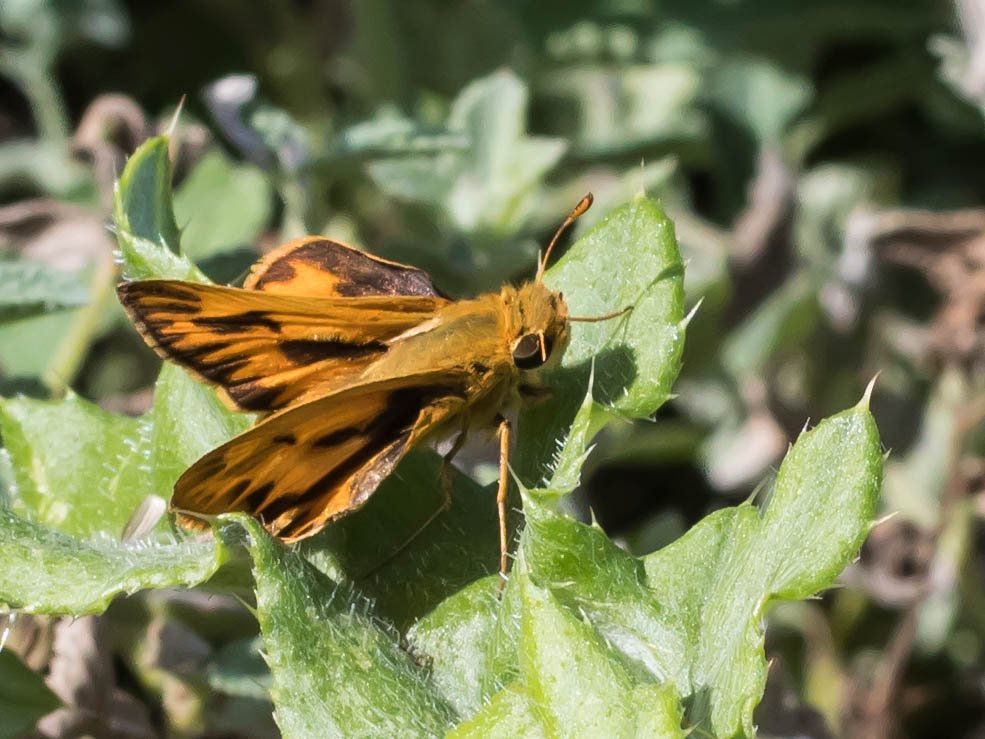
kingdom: Animalia
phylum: Arthropoda
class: Insecta
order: Lepidoptera
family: Hesperiidae
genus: Hylephila
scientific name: Hylephila phyleus
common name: Fiery Skipper
